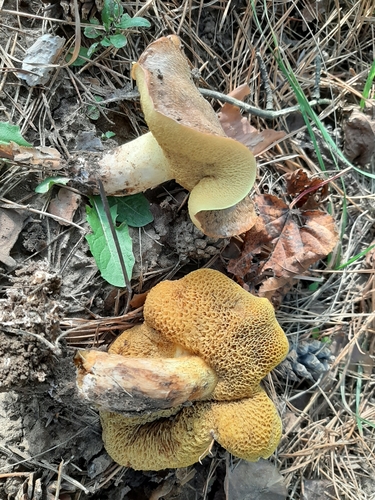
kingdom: Fungi
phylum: Basidiomycota
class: Agaricomycetes
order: Boletales
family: Suillaceae
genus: Suillus
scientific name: Suillus bovinus
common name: Bovine bolete
